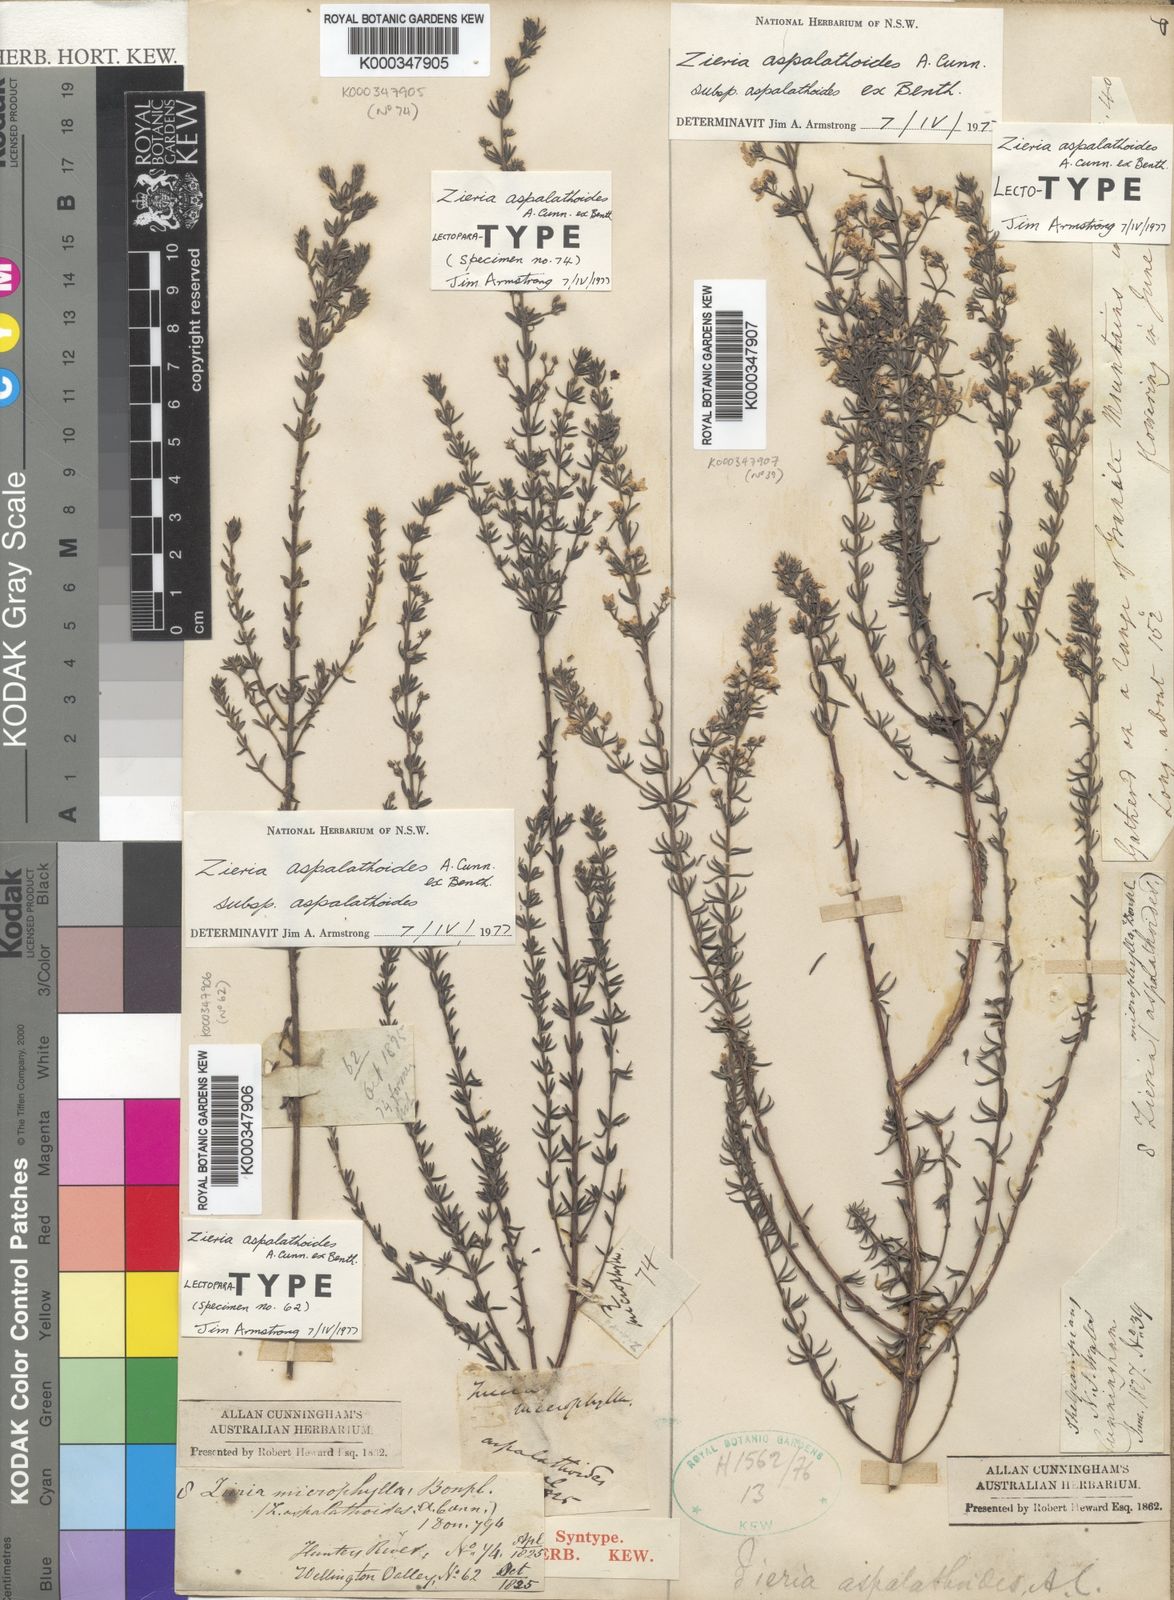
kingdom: Plantae
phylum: Tracheophyta
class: Magnoliopsida
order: Sapindales
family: Rutaceae
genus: Zieria
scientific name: Zieria aspalathoides
